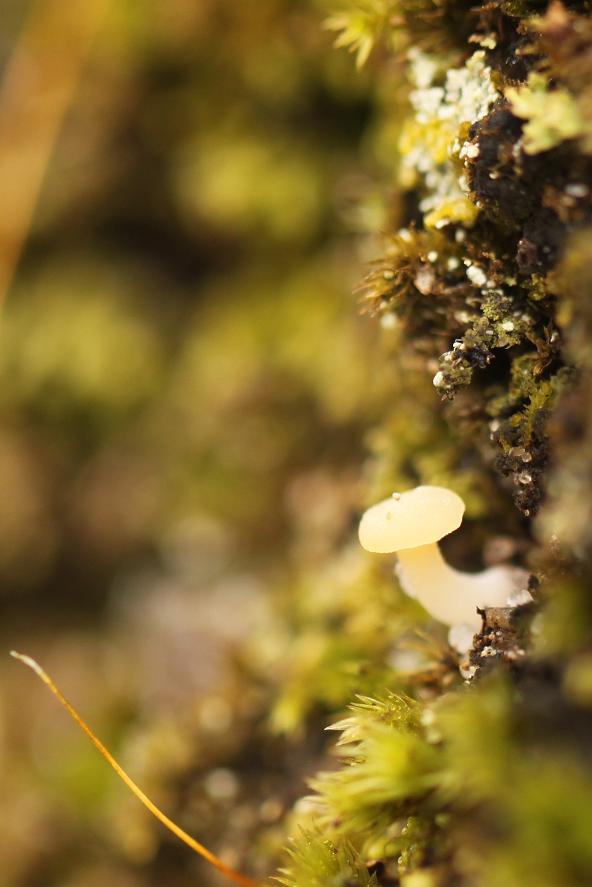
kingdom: Fungi
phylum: Basidiomycota
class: Agaricomycetes
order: Agaricales
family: Hygrophoraceae
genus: Lichenomphalia
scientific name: Lichenomphalia hudsoniana
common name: thallus-lavhat
